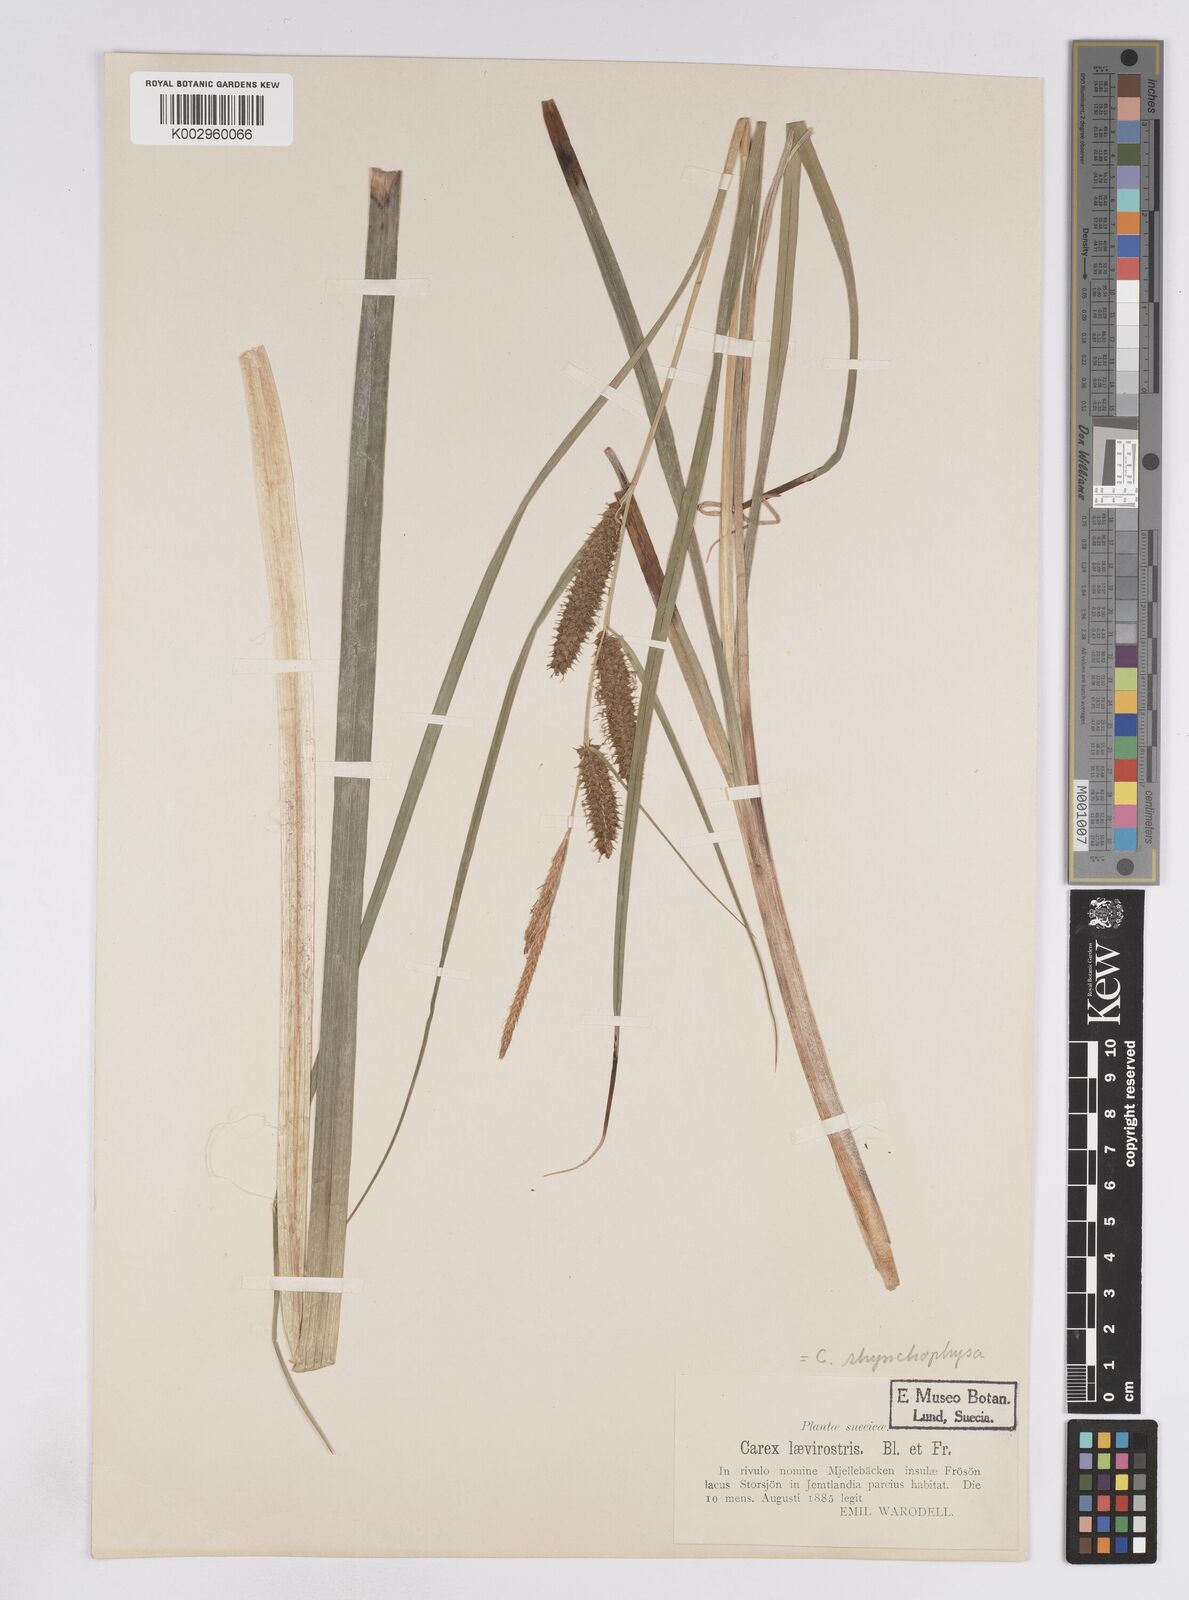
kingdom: Plantae
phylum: Tracheophyta
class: Liliopsida
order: Poales
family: Cyperaceae
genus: Carex
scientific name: Carex utriculata
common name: Beaked sedge
